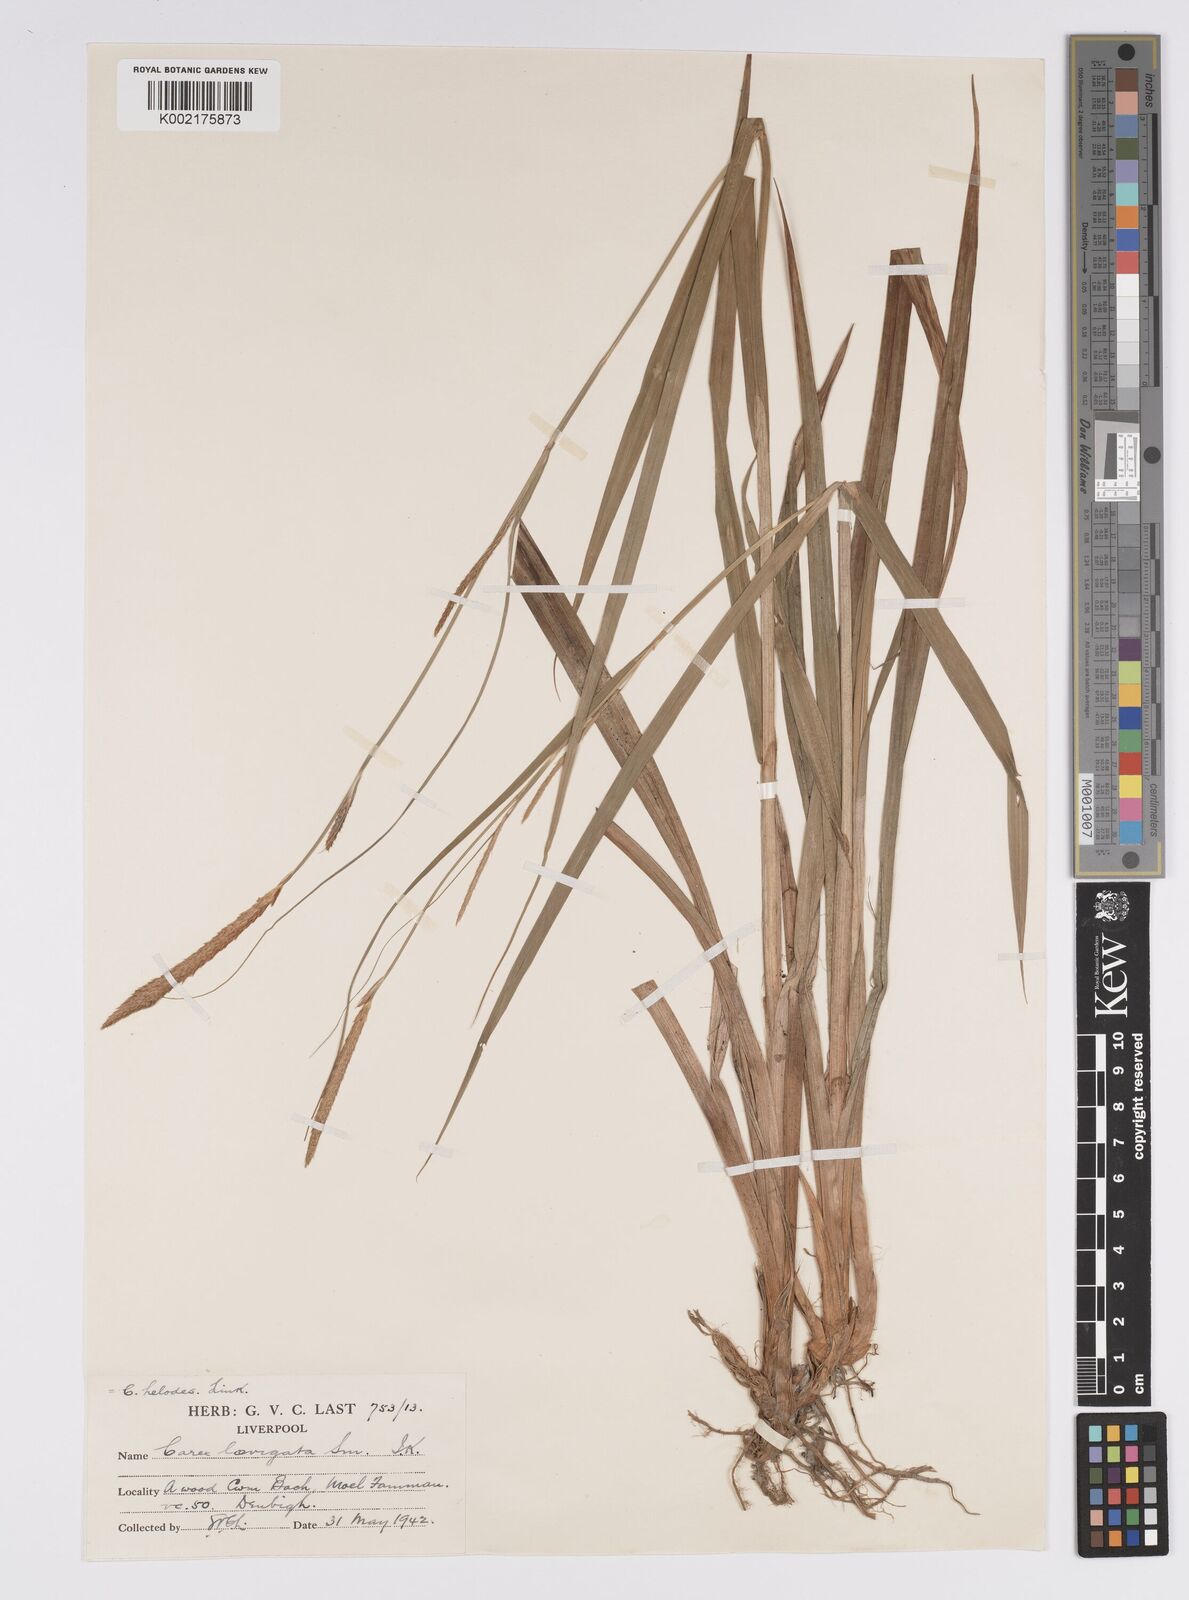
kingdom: Plantae
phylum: Tracheophyta
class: Liliopsida
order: Poales
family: Cyperaceae
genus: Carex
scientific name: Carex laevigata
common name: Smooth-stalked sedge
